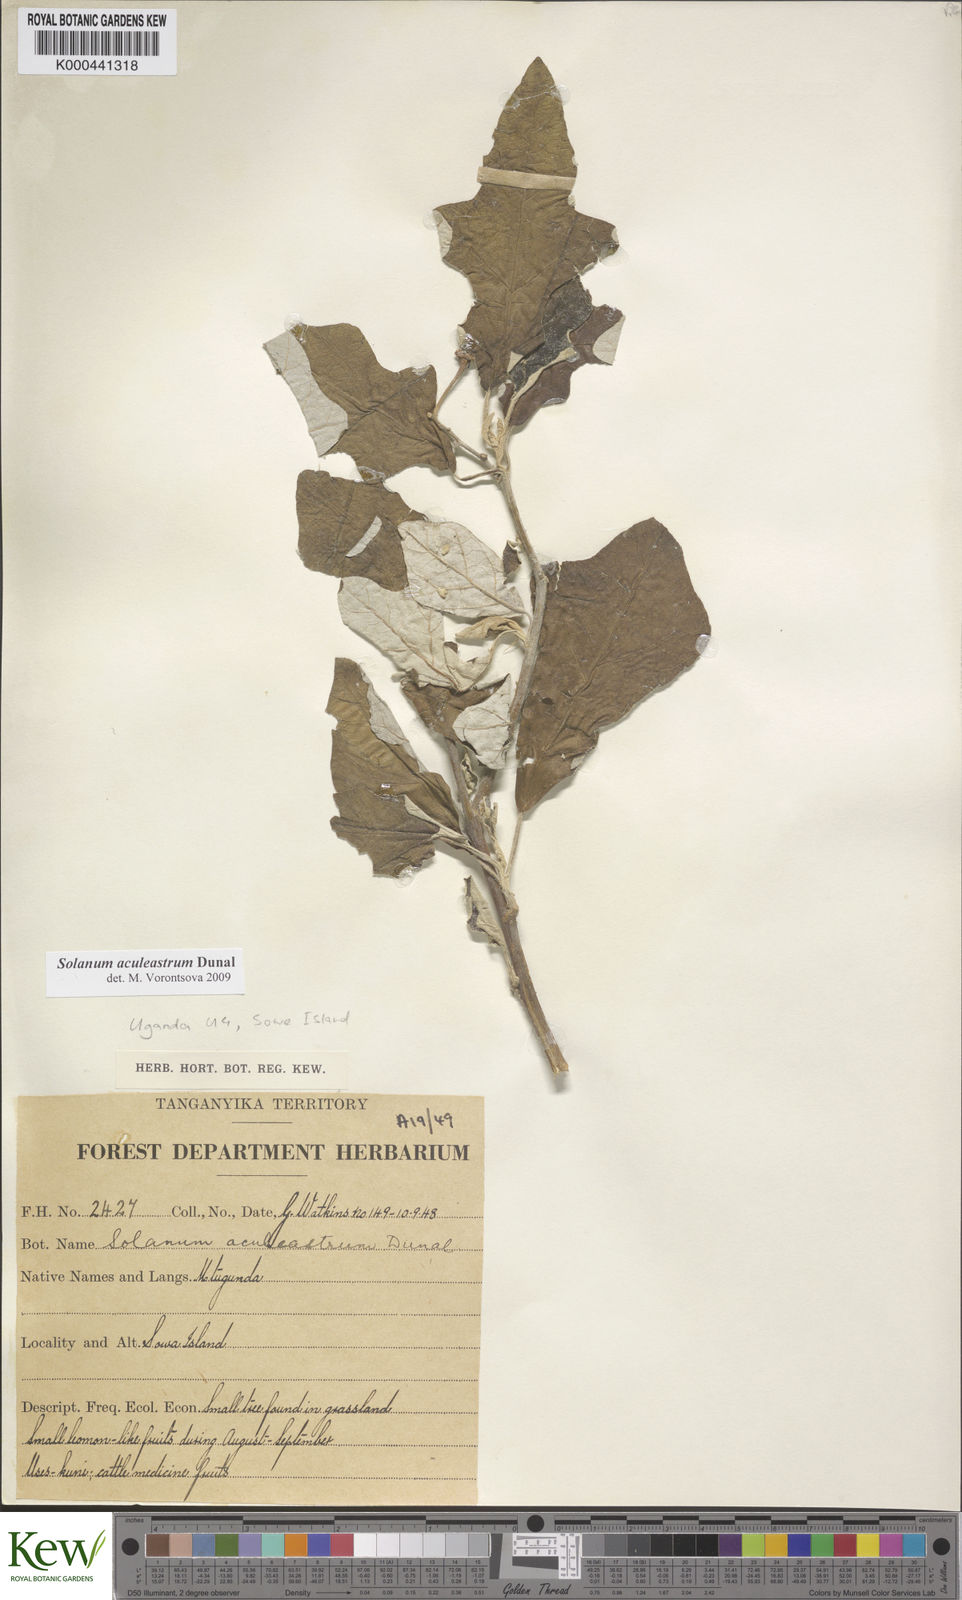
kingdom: Plantae
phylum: Tracheophyta
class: Magnoliopsida
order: Solanales
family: Solanaceae
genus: Solanum
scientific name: Solanum aculeastrum
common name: Goat bitter-apple
